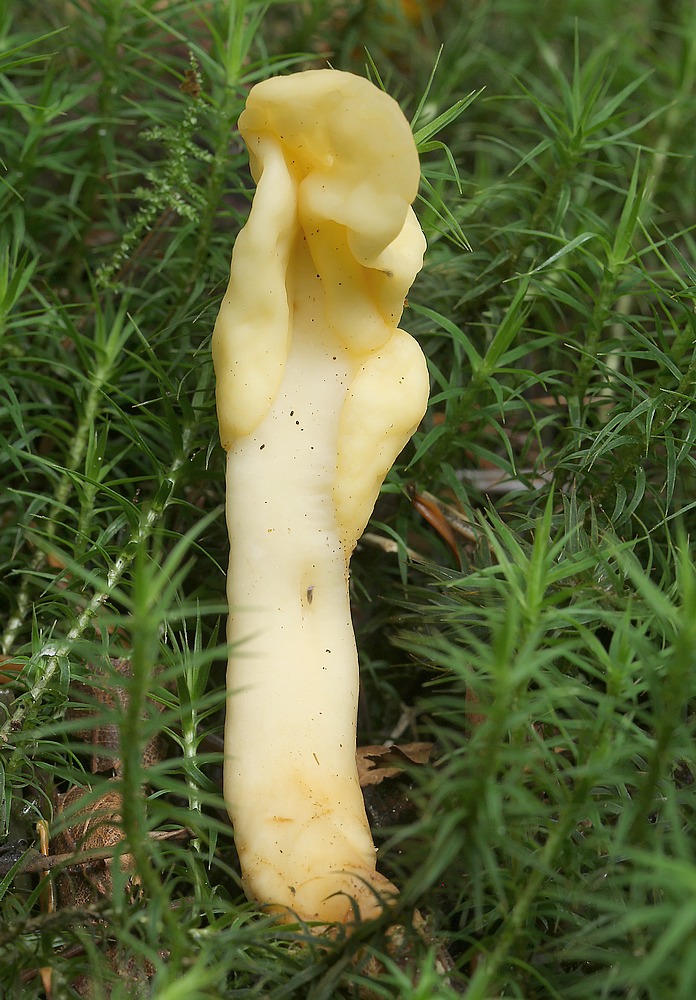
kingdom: Fungi
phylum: Ascomycota
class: Leotiomycetes
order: Rhytismatales
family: Cudoniaceae
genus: Spathularia
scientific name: Spathularia flavida
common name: gul spatelsvamp
